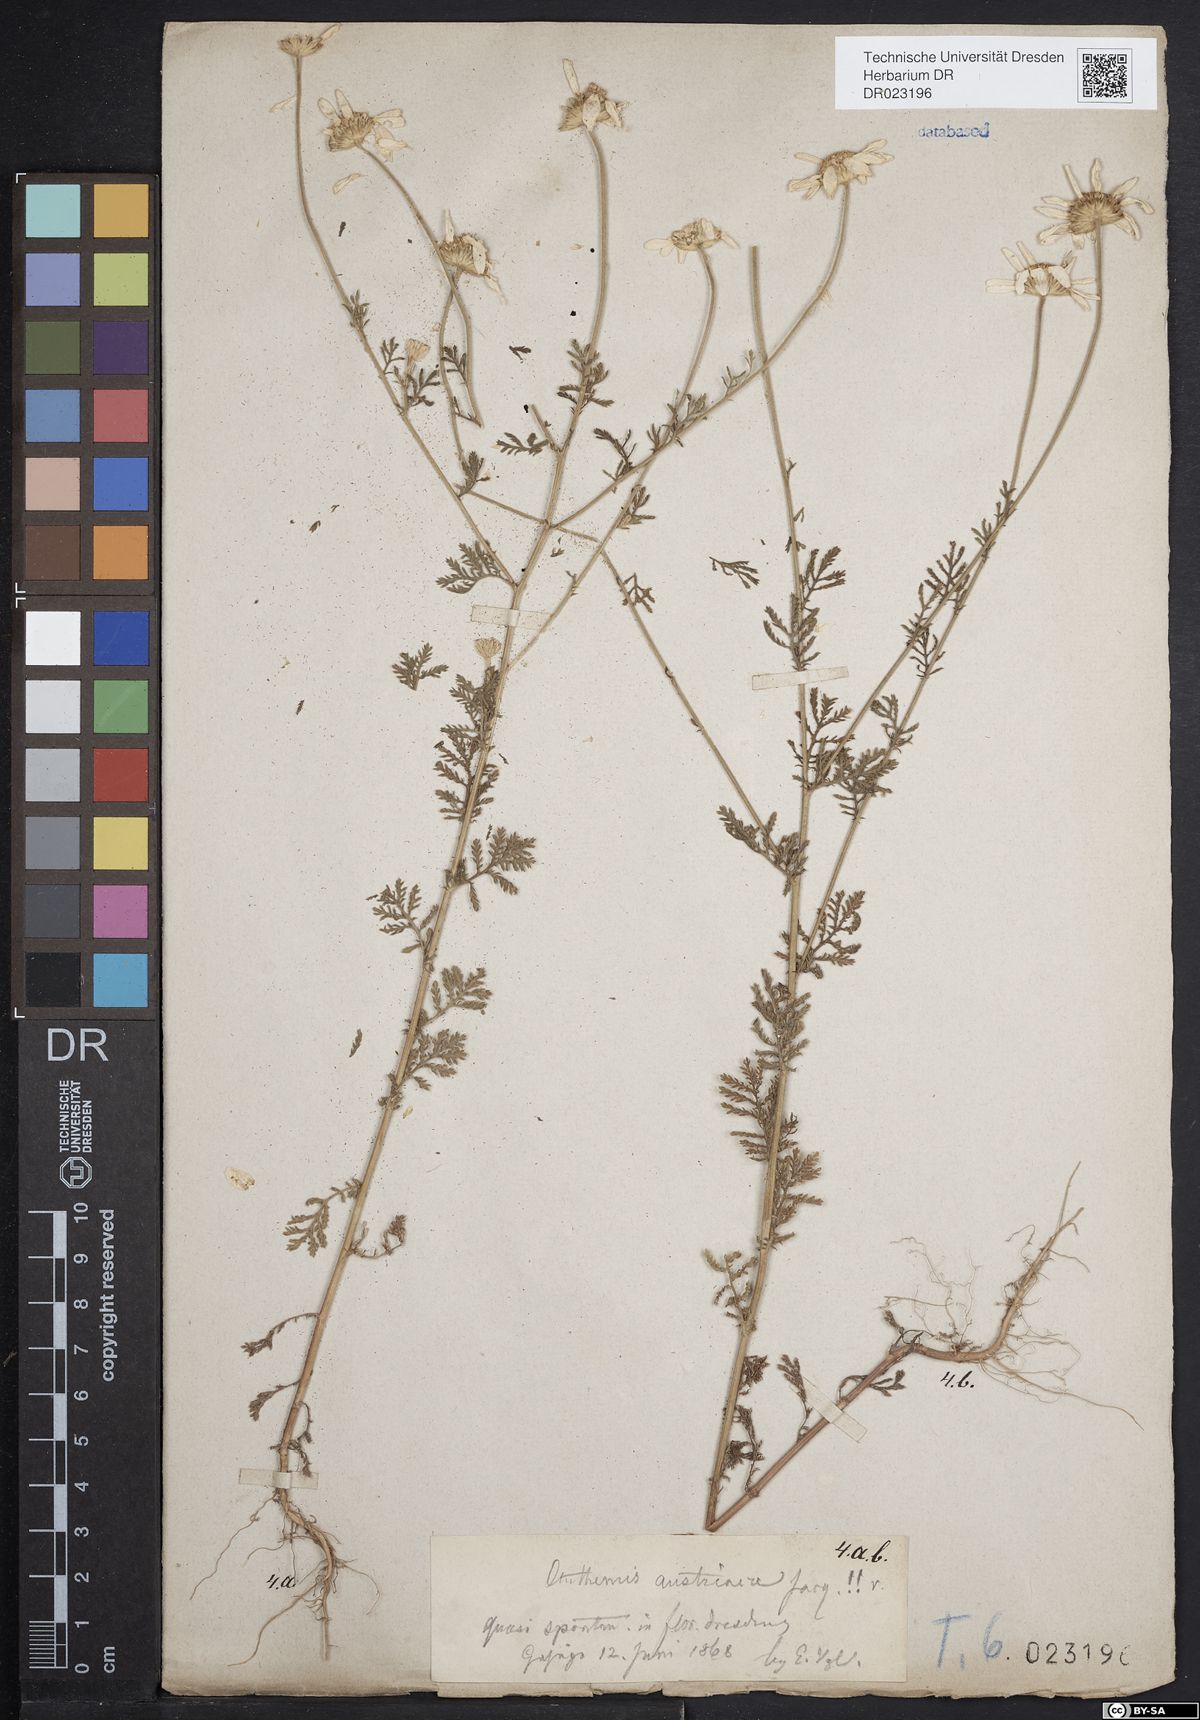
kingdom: Plantae
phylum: Tracheophyta
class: Magnoliopsida
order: Asterales
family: Asteraceae
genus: Cota
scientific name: Cota austriaca
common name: Austrian chamomile
